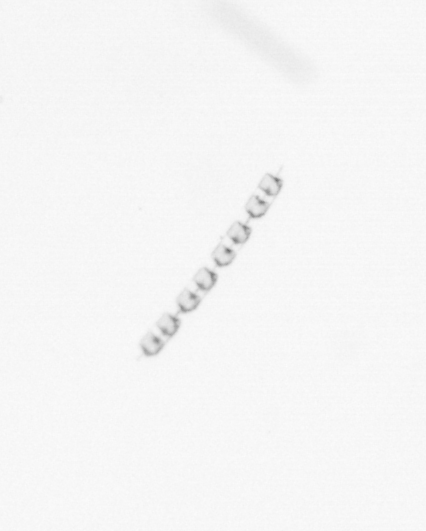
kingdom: Chromista
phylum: Ochrophyta
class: Bacillariophyceae
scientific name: Bacillariophyceae
